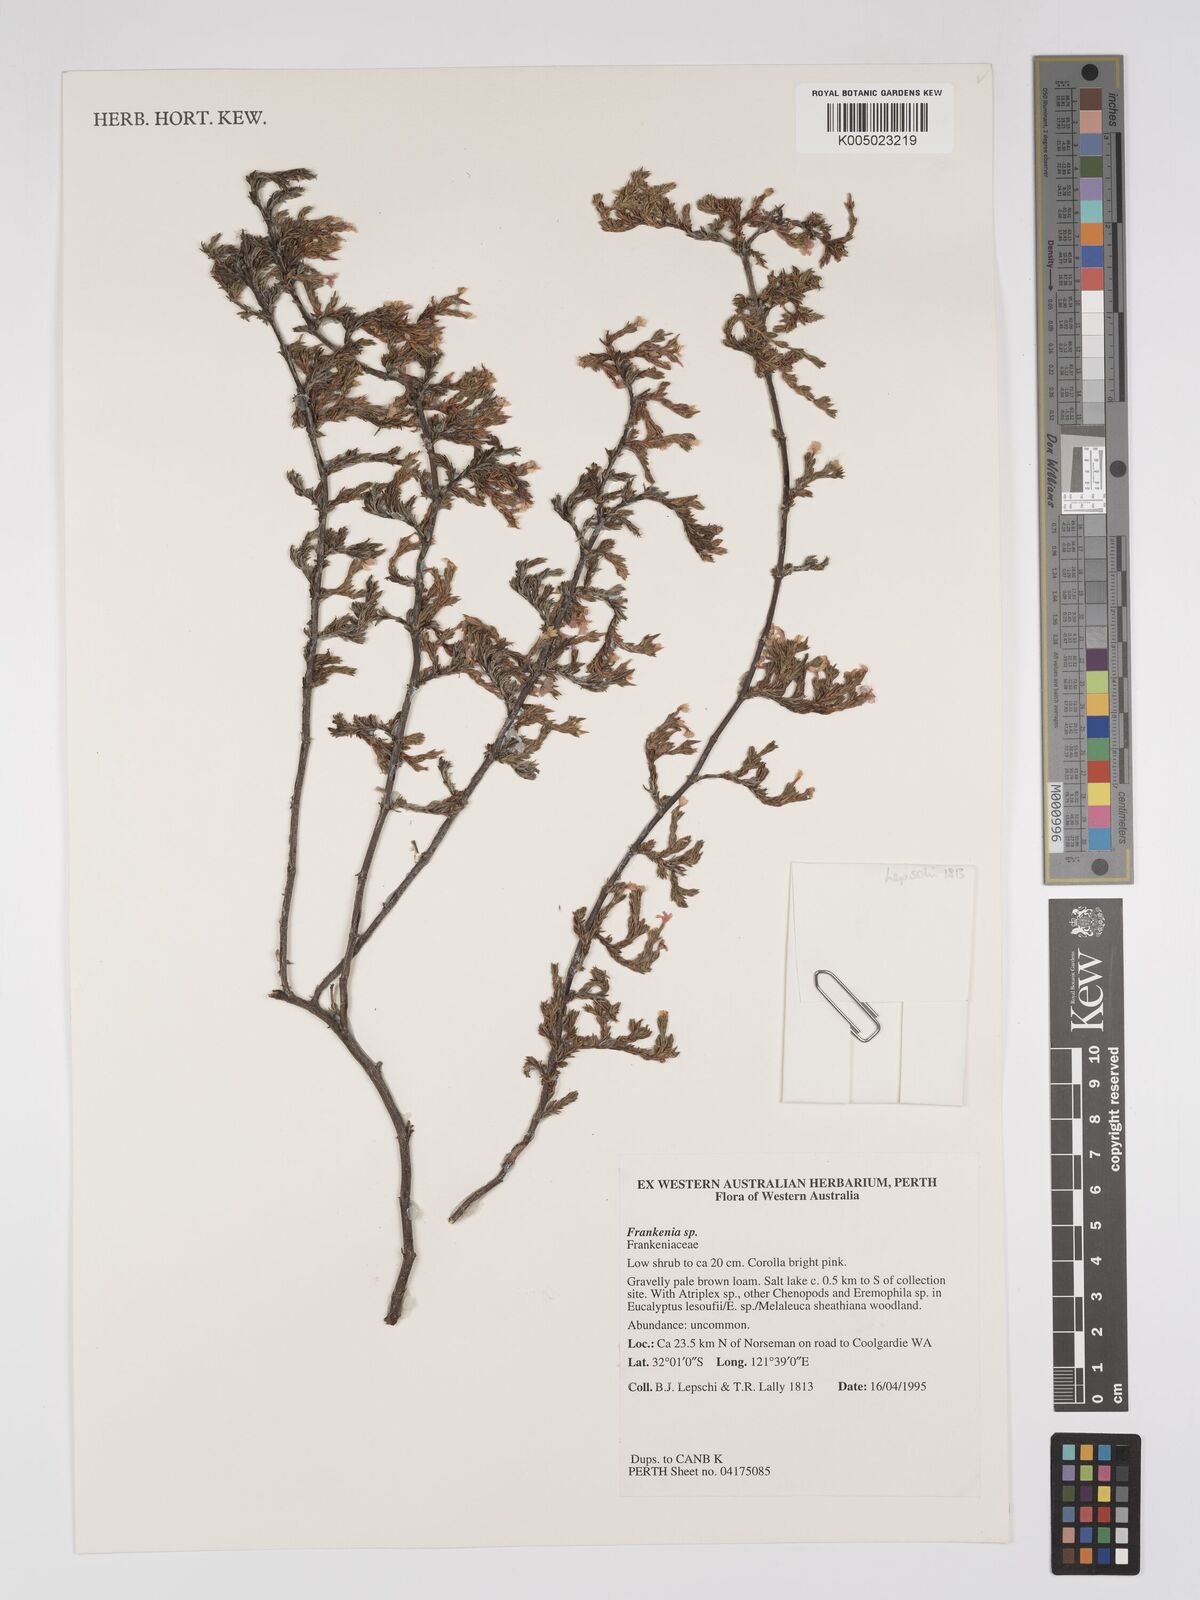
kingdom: Plantae
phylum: Tracheophyta
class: Magnoliopsida
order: Caryophyllales
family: Frankeniaceae
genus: Frankenia
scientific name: Frankenia
